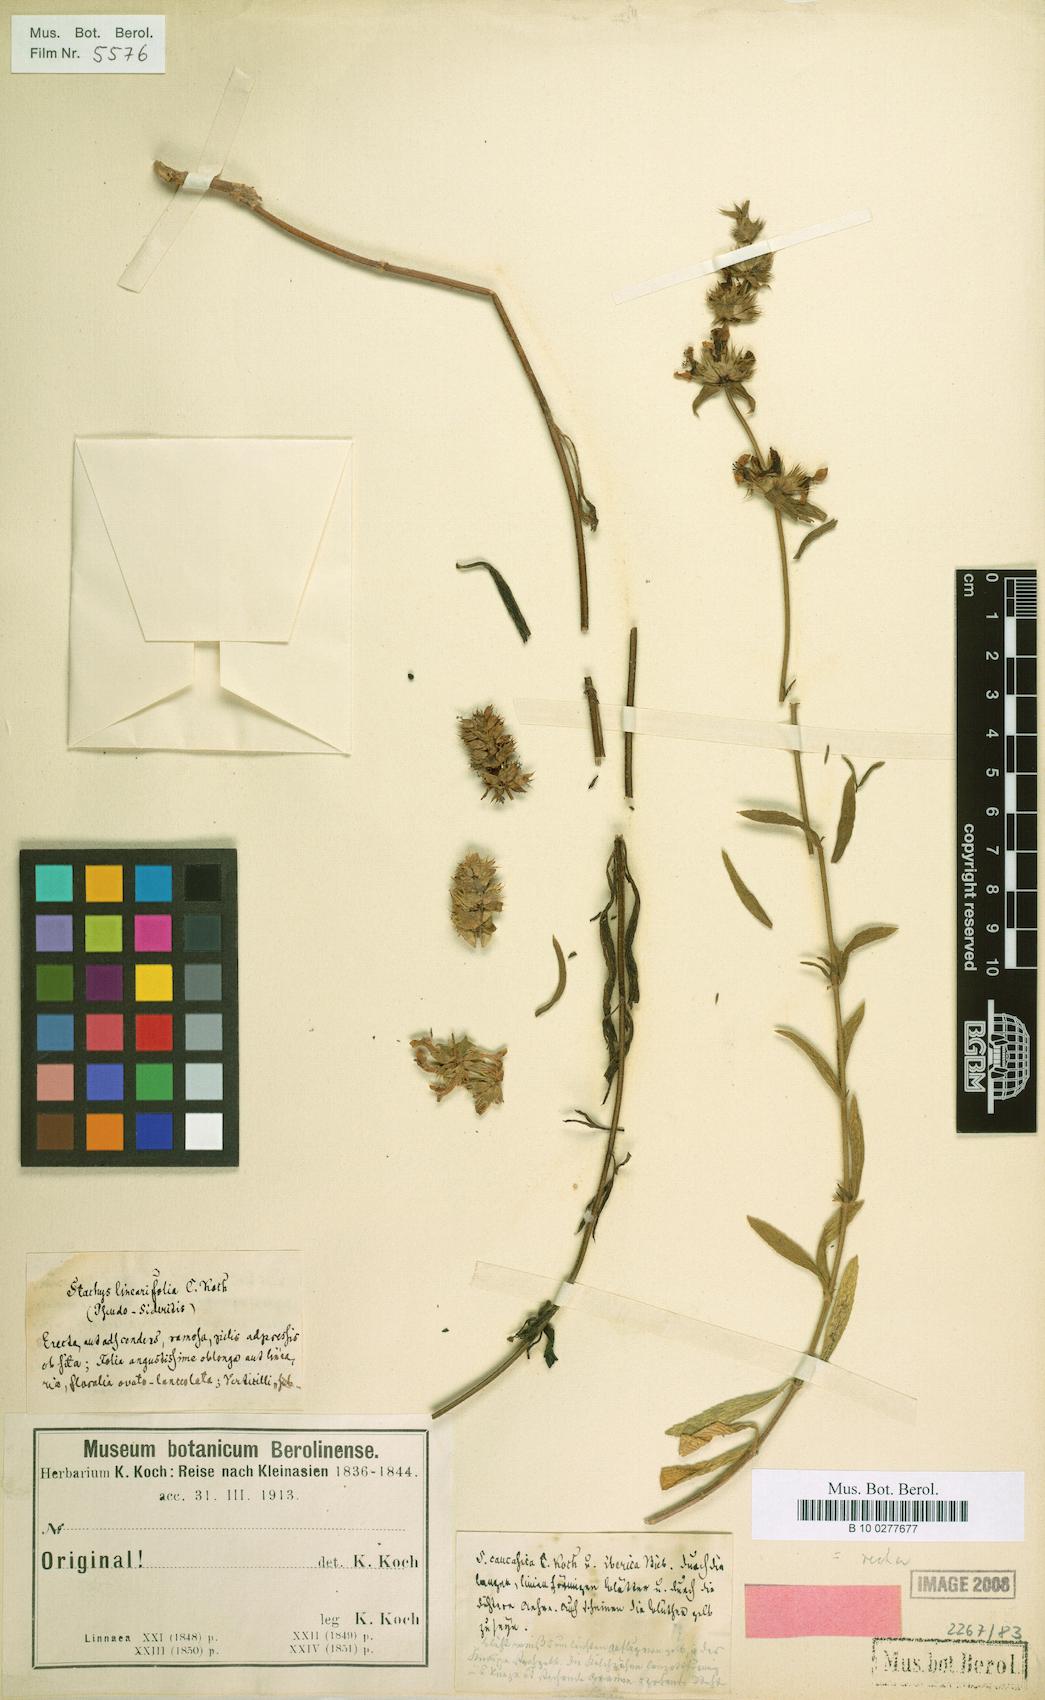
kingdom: Plantae
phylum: Tracheophyta
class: Magnoliopsida
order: Lamiales
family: Lamiaceae
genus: Stachys
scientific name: Stachys atherocalyx
